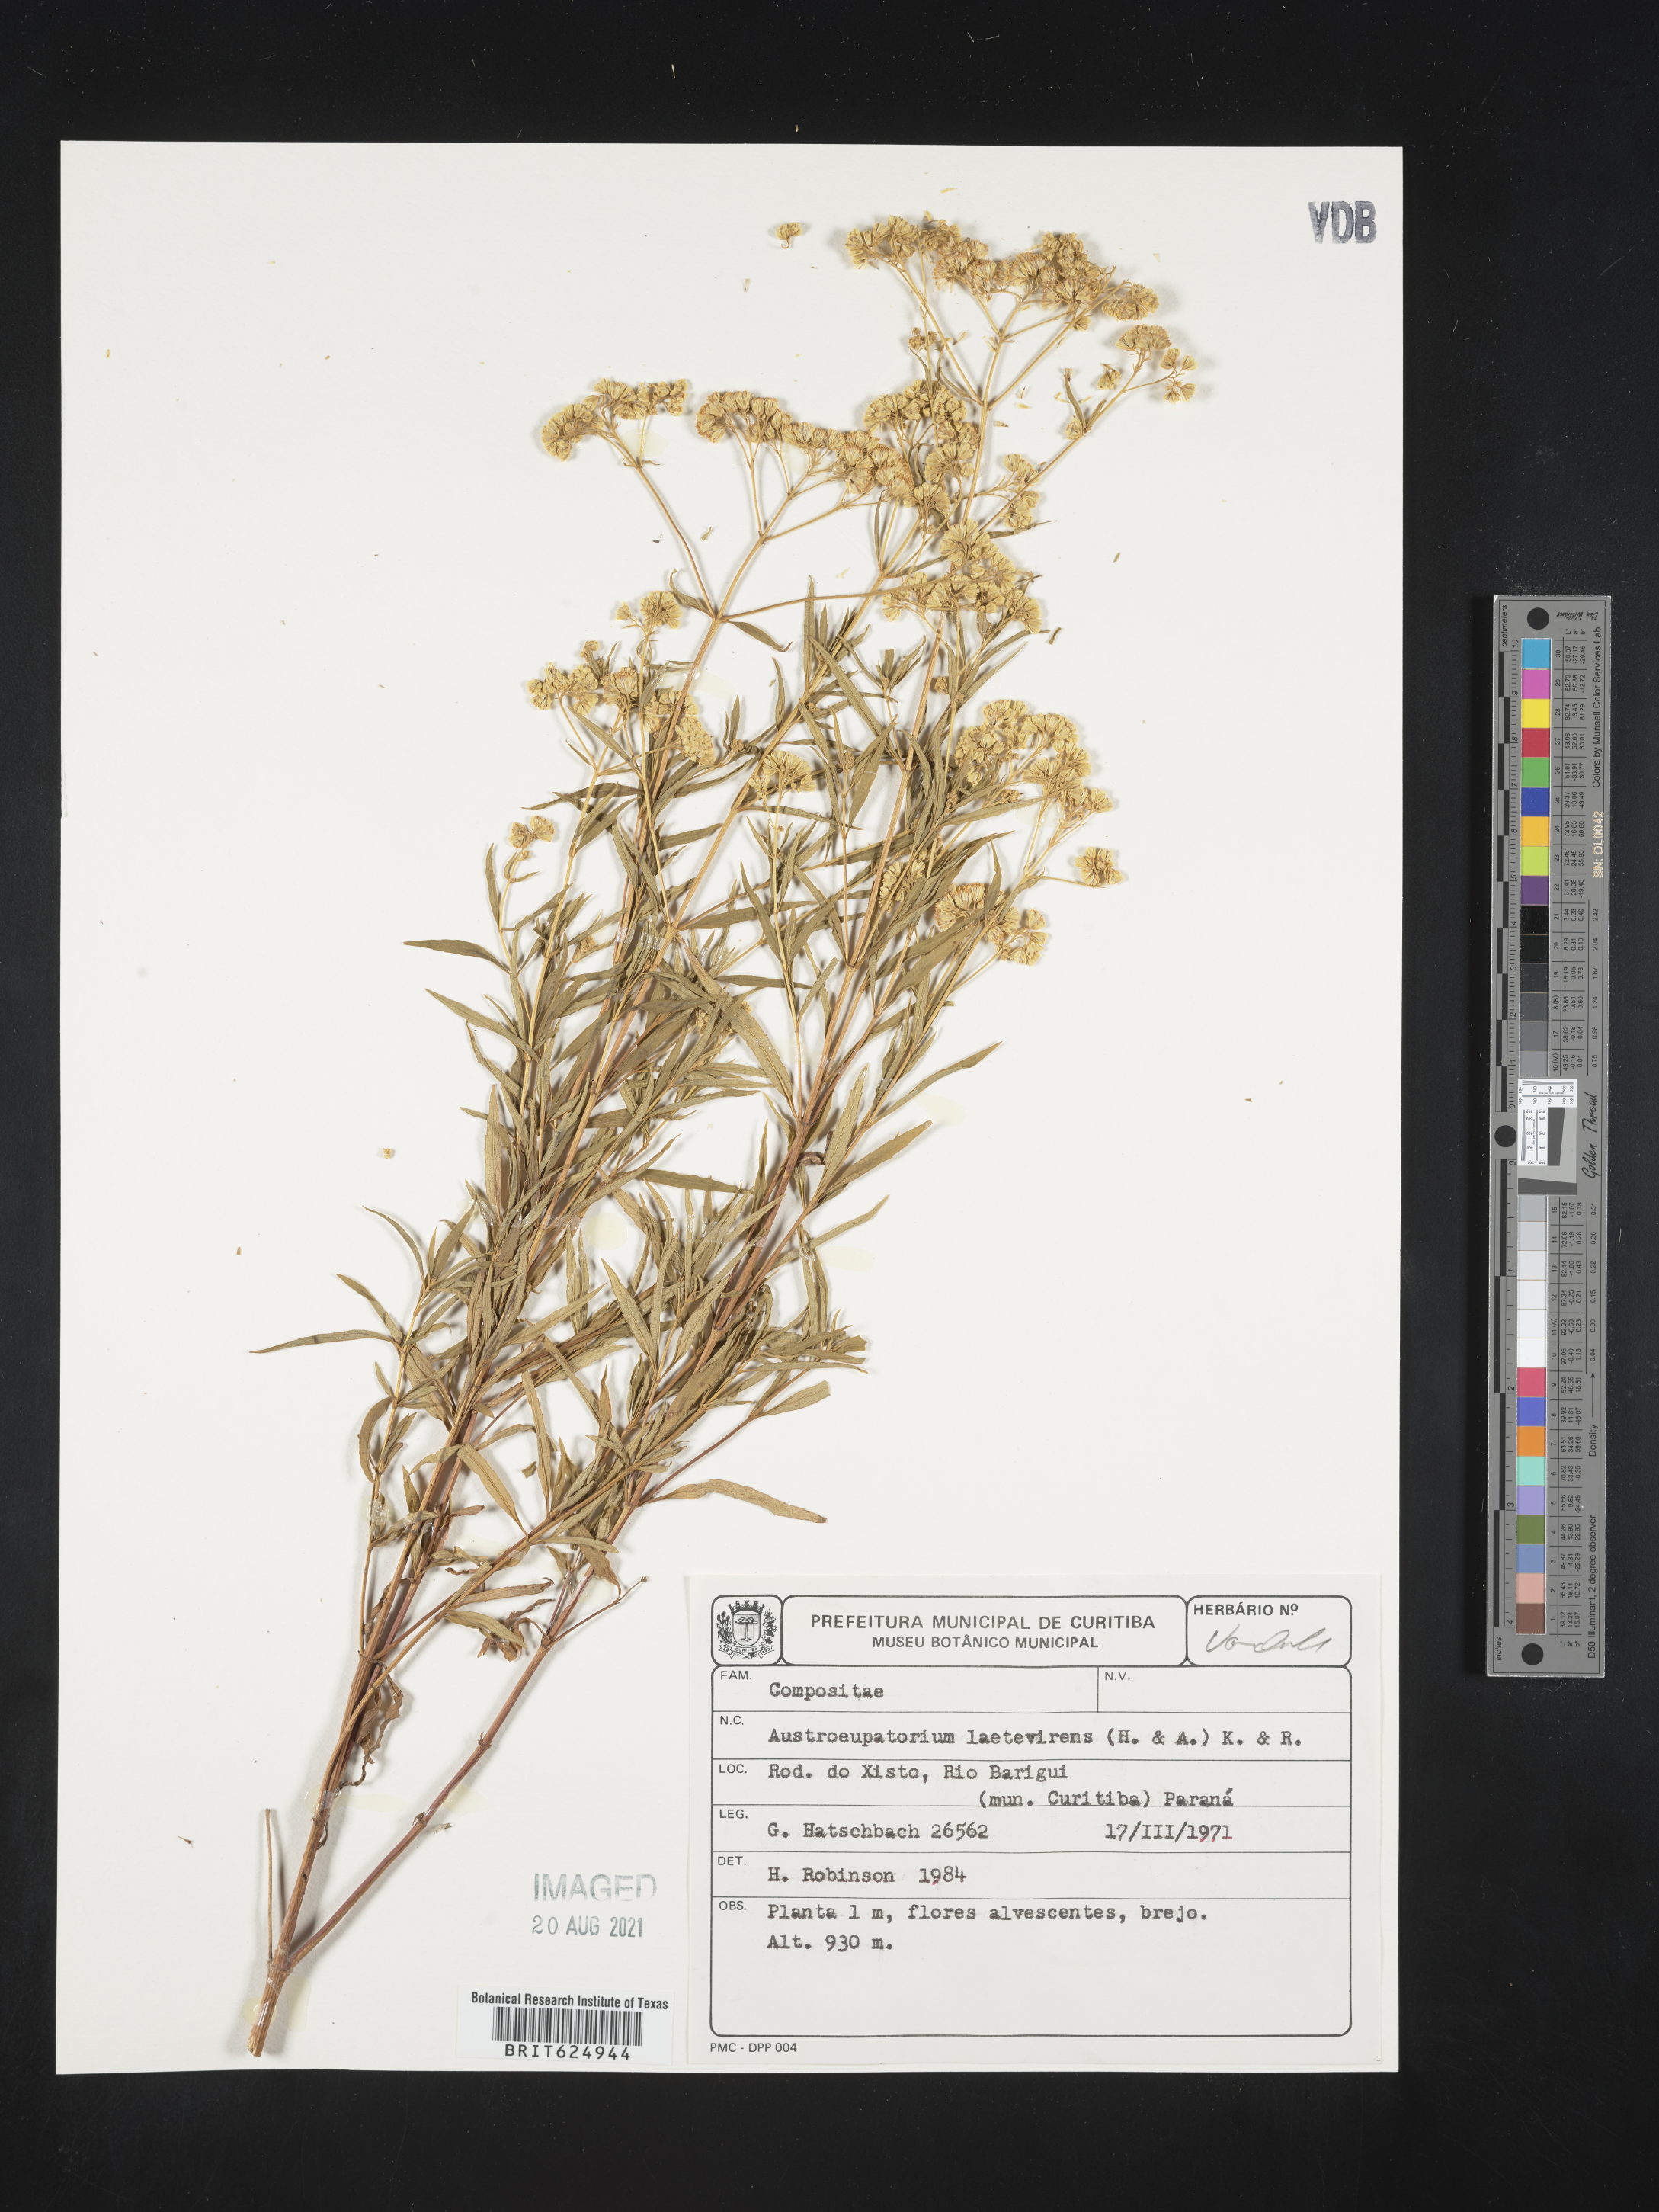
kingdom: Plantae
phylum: Tracheophyta
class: Magnoliopsida
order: Asterales
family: Asteraceae
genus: Austroeupatorium
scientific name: Austroeupatorium laetevirens
